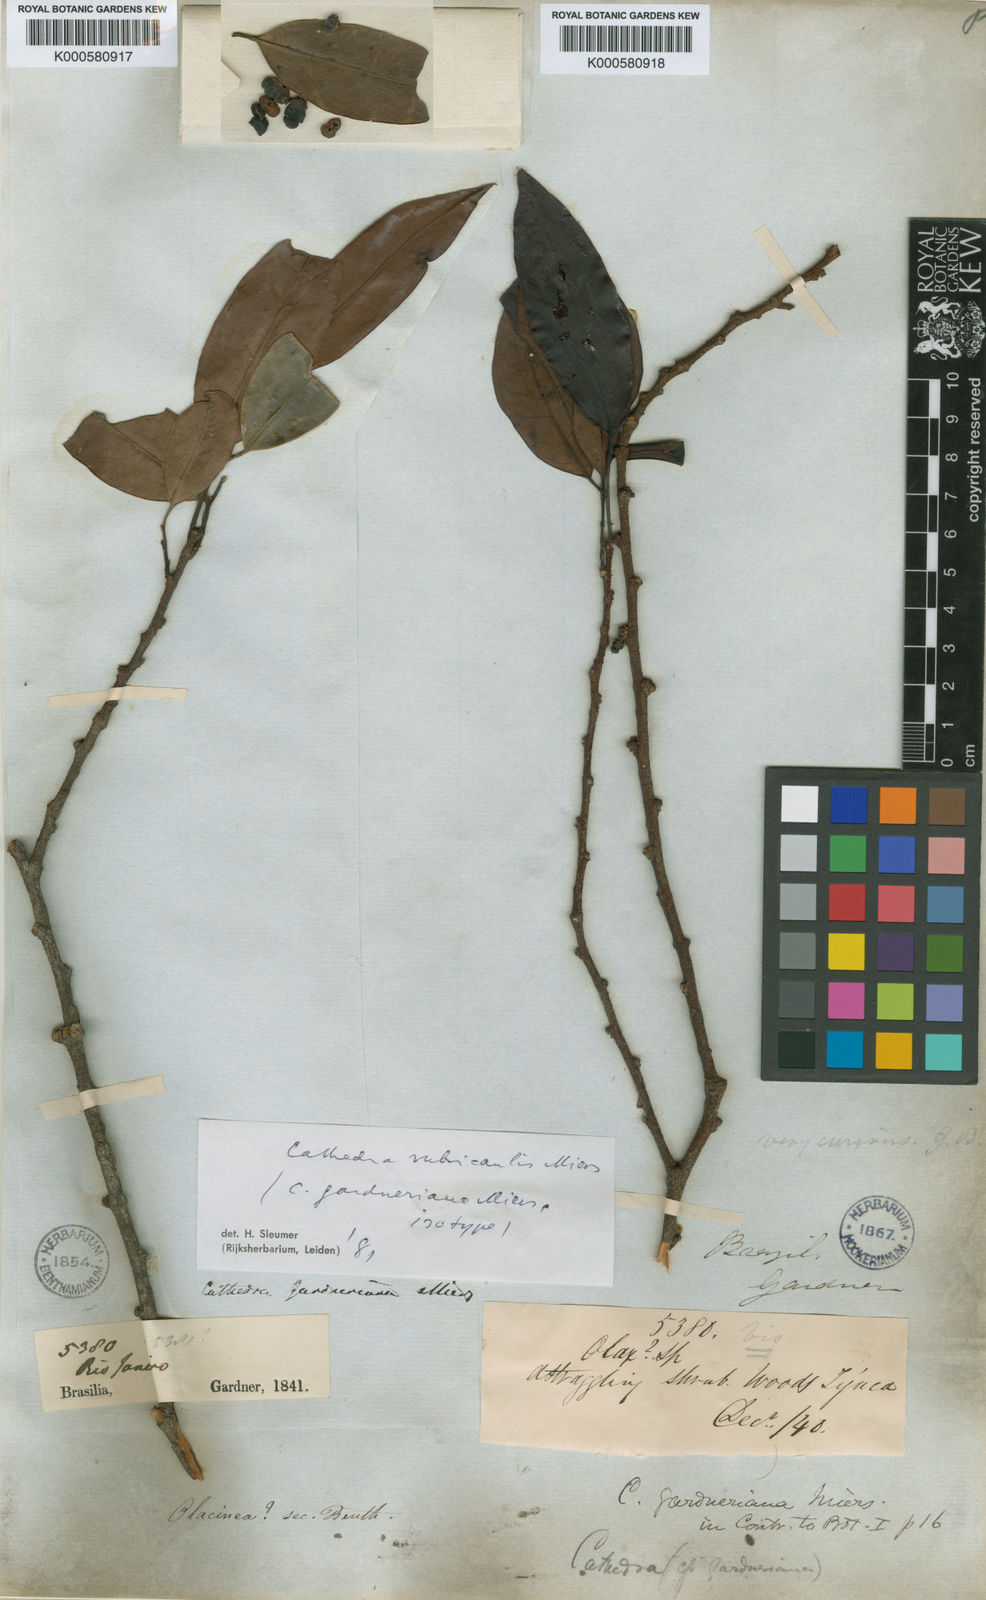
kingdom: Plantae
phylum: Tracheophyta
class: Magnoliopsida
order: Santalales
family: Aptandraceae
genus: Cathedra
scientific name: Cathedra rubricaulis
